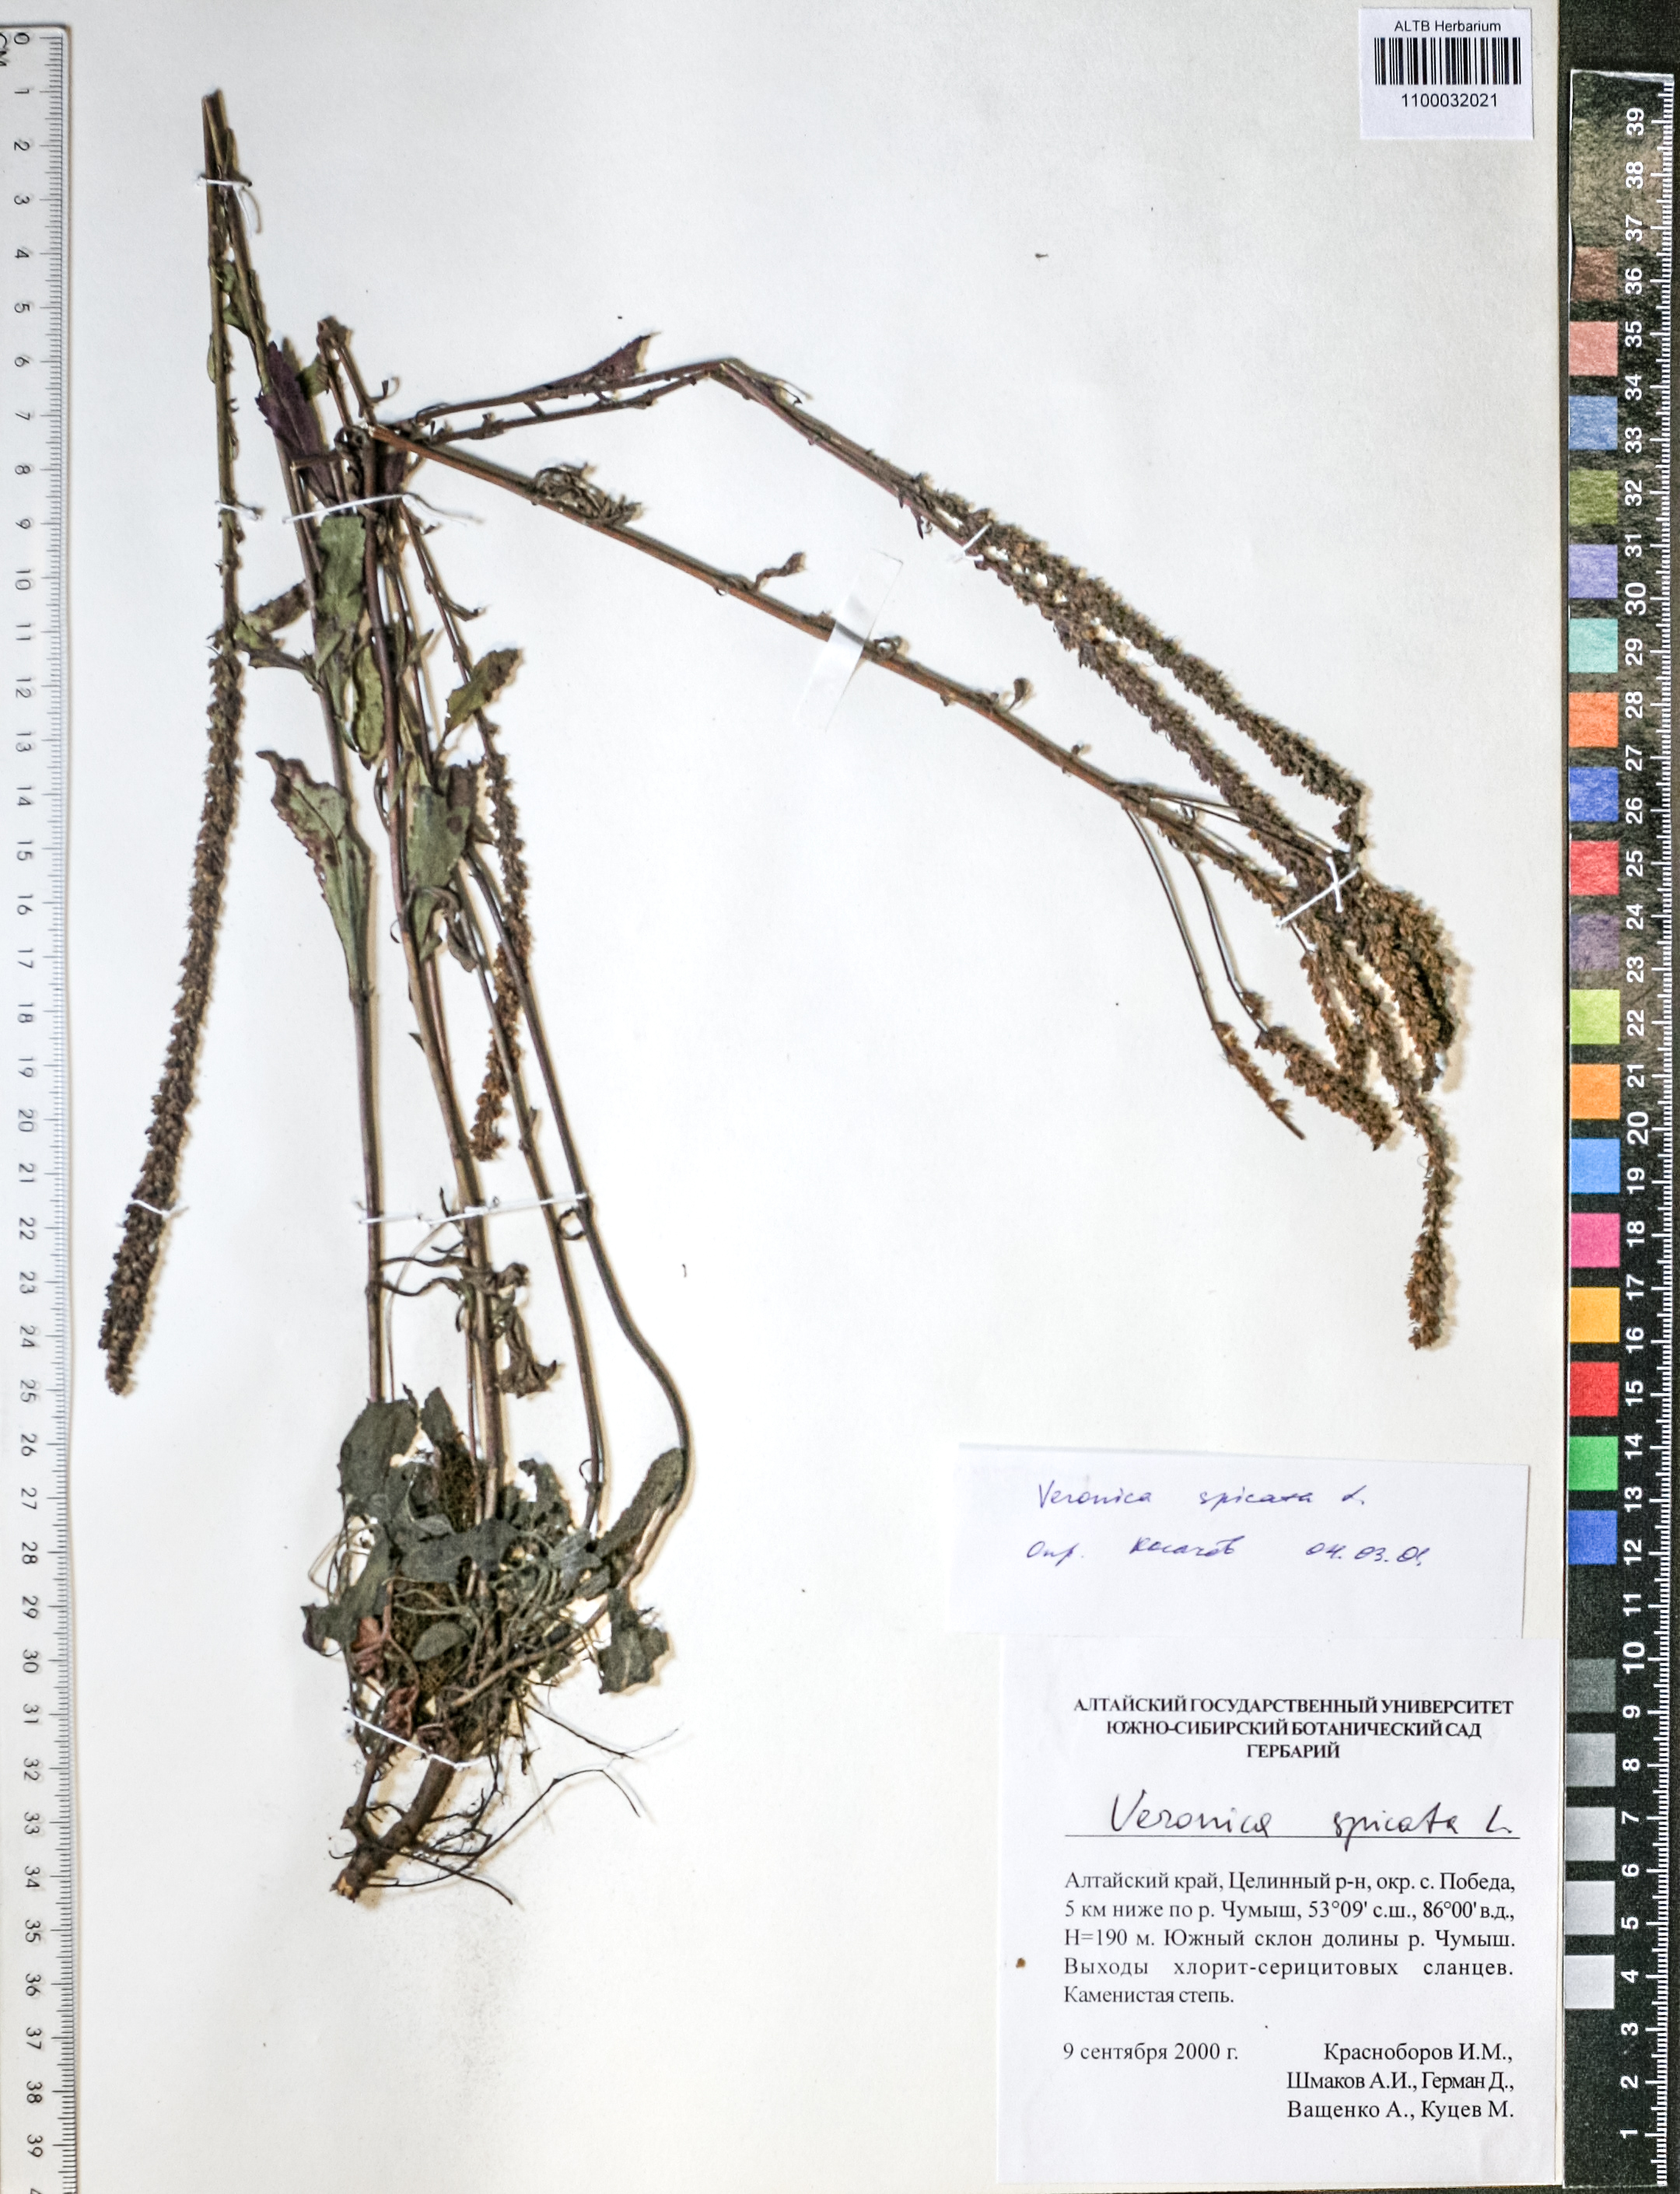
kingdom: Plantae
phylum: Tracheophyta
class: Magnoliopsida
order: Lamiales
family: Plantaginaceae
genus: Veronica
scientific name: Veronica spicata
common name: Spiked speedwell
